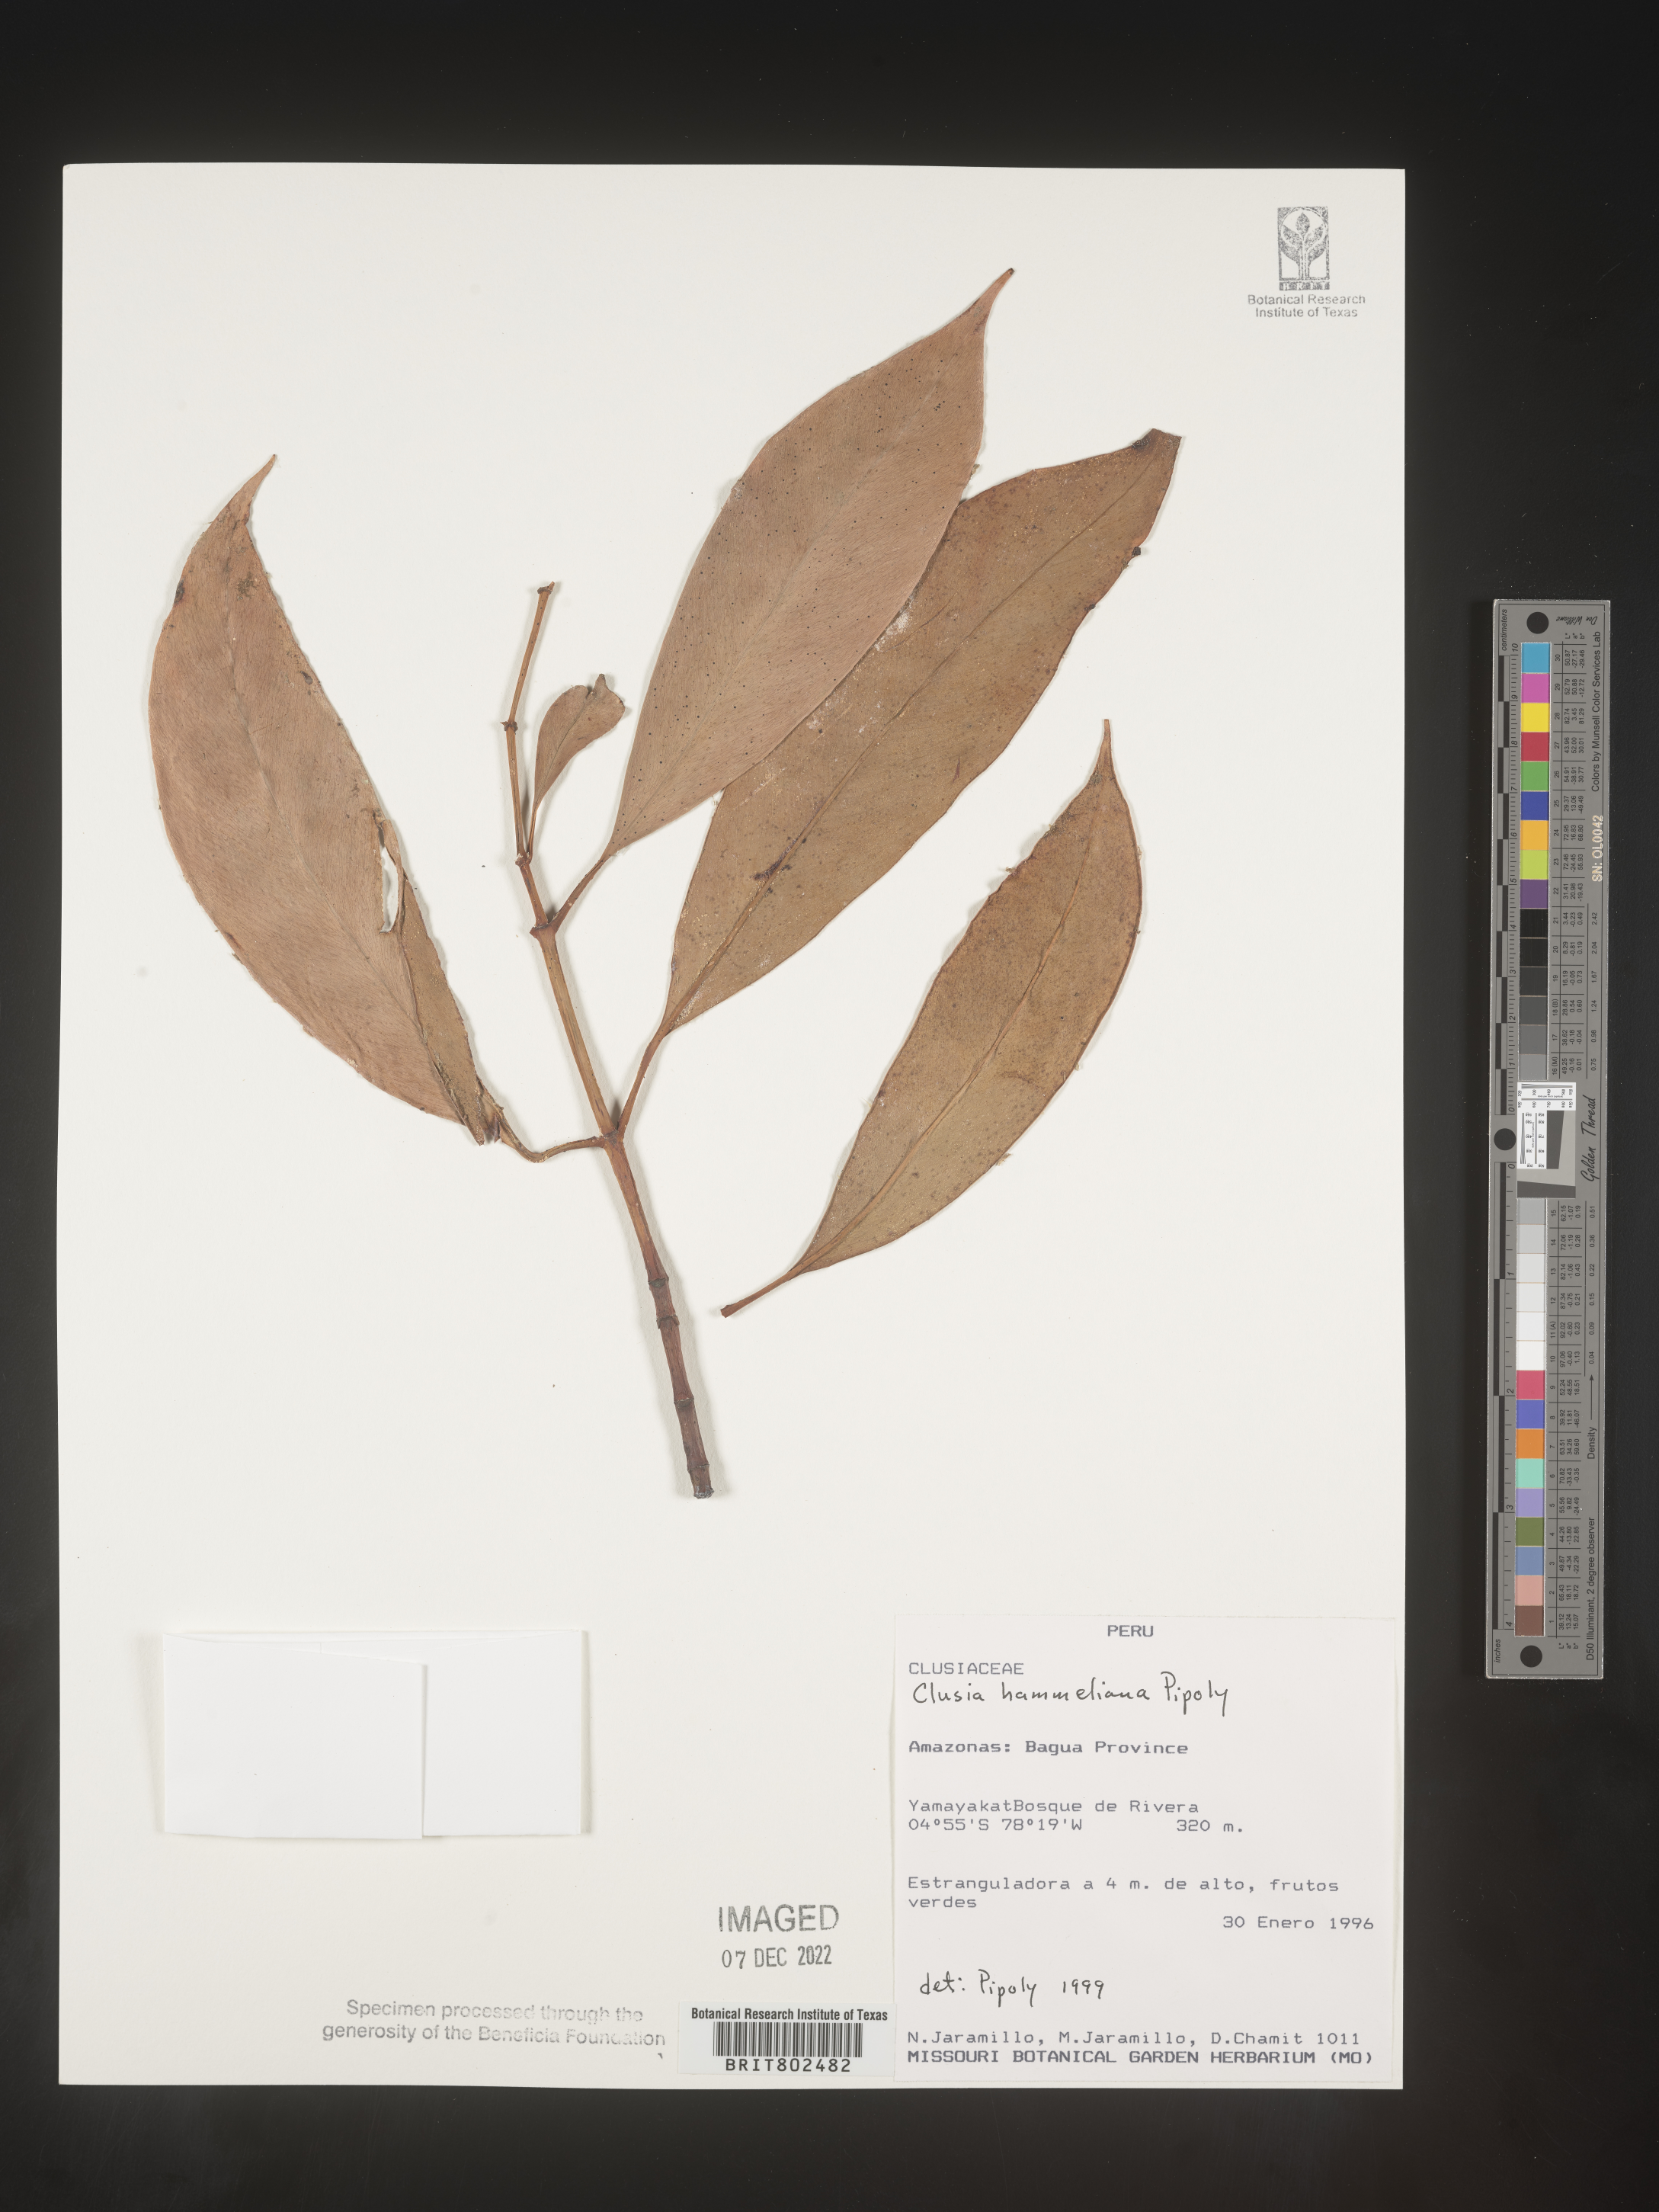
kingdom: Plantae
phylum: Tracheophyta
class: Magnoliopsida
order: Malpighiales
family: Clusiaceae
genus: Clusia
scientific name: Clusia hammeliana
